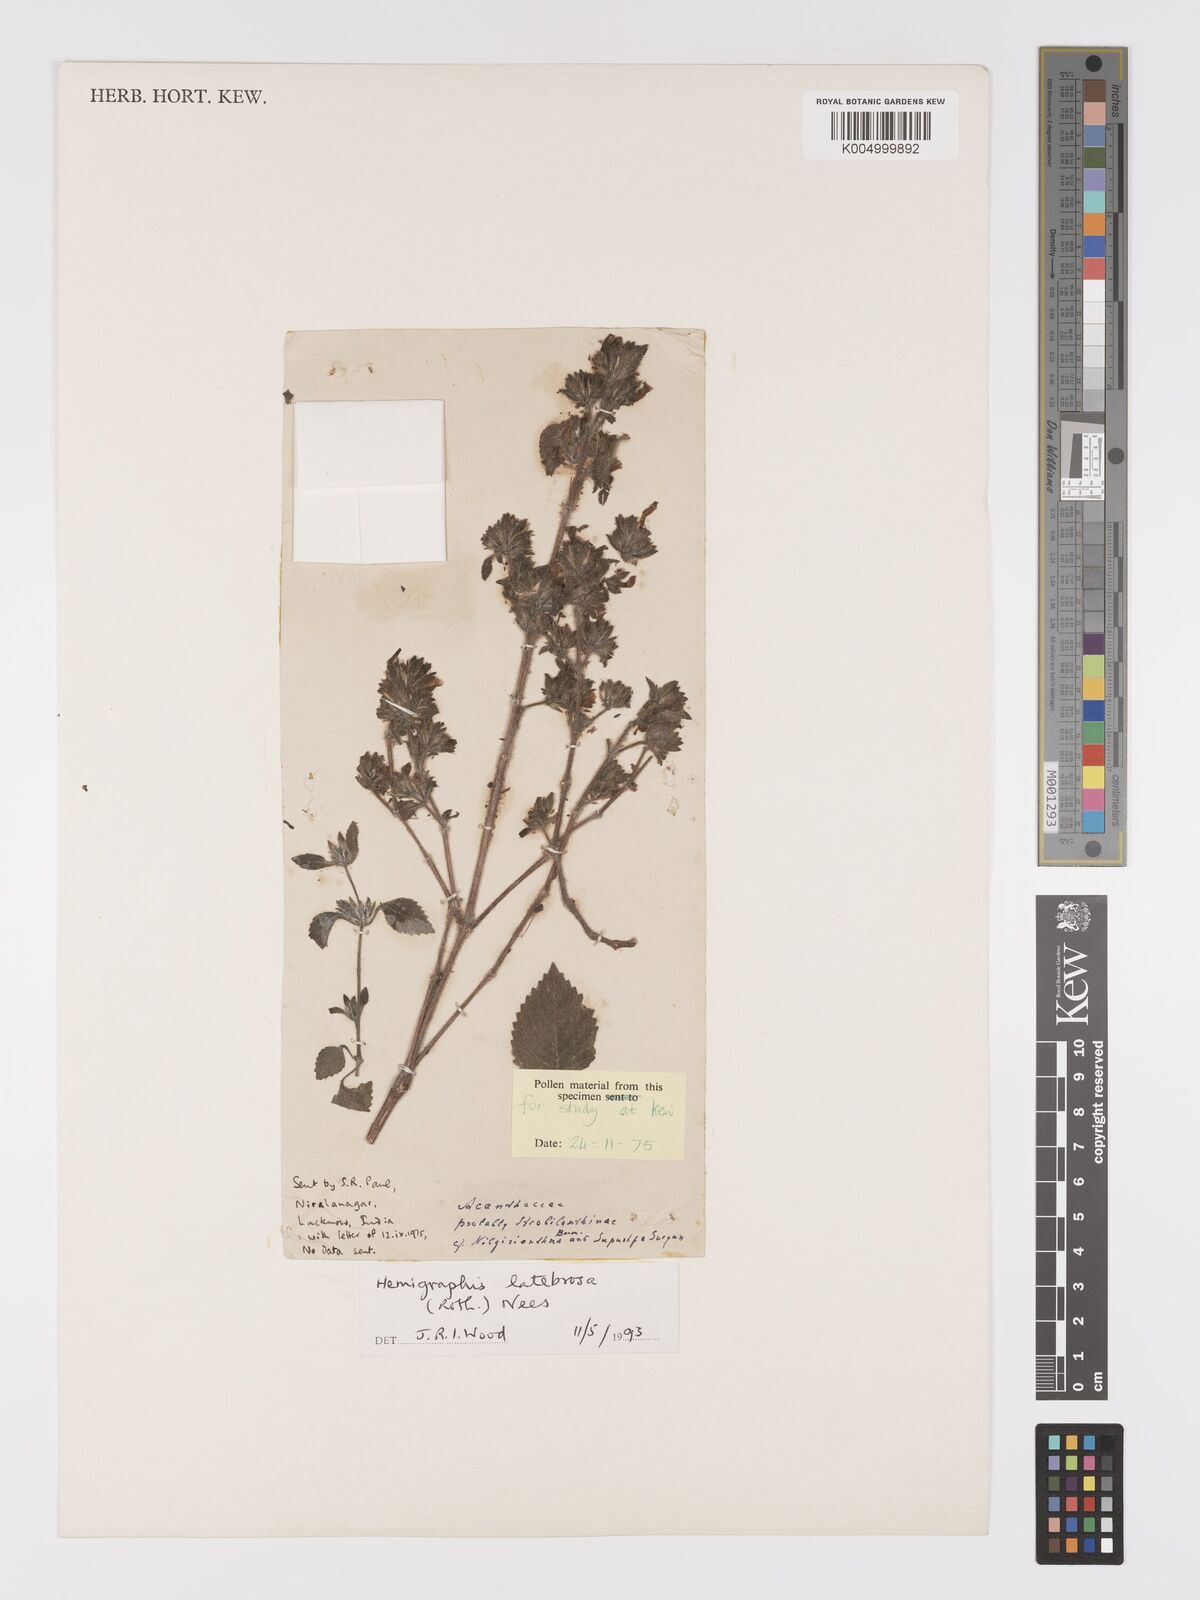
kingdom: Plantae
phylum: Tracheophyta
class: Magnoliopsida
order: Lamiales
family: Acanthaceae
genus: Strobilanthes
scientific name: Strobilanthes latebrosa
